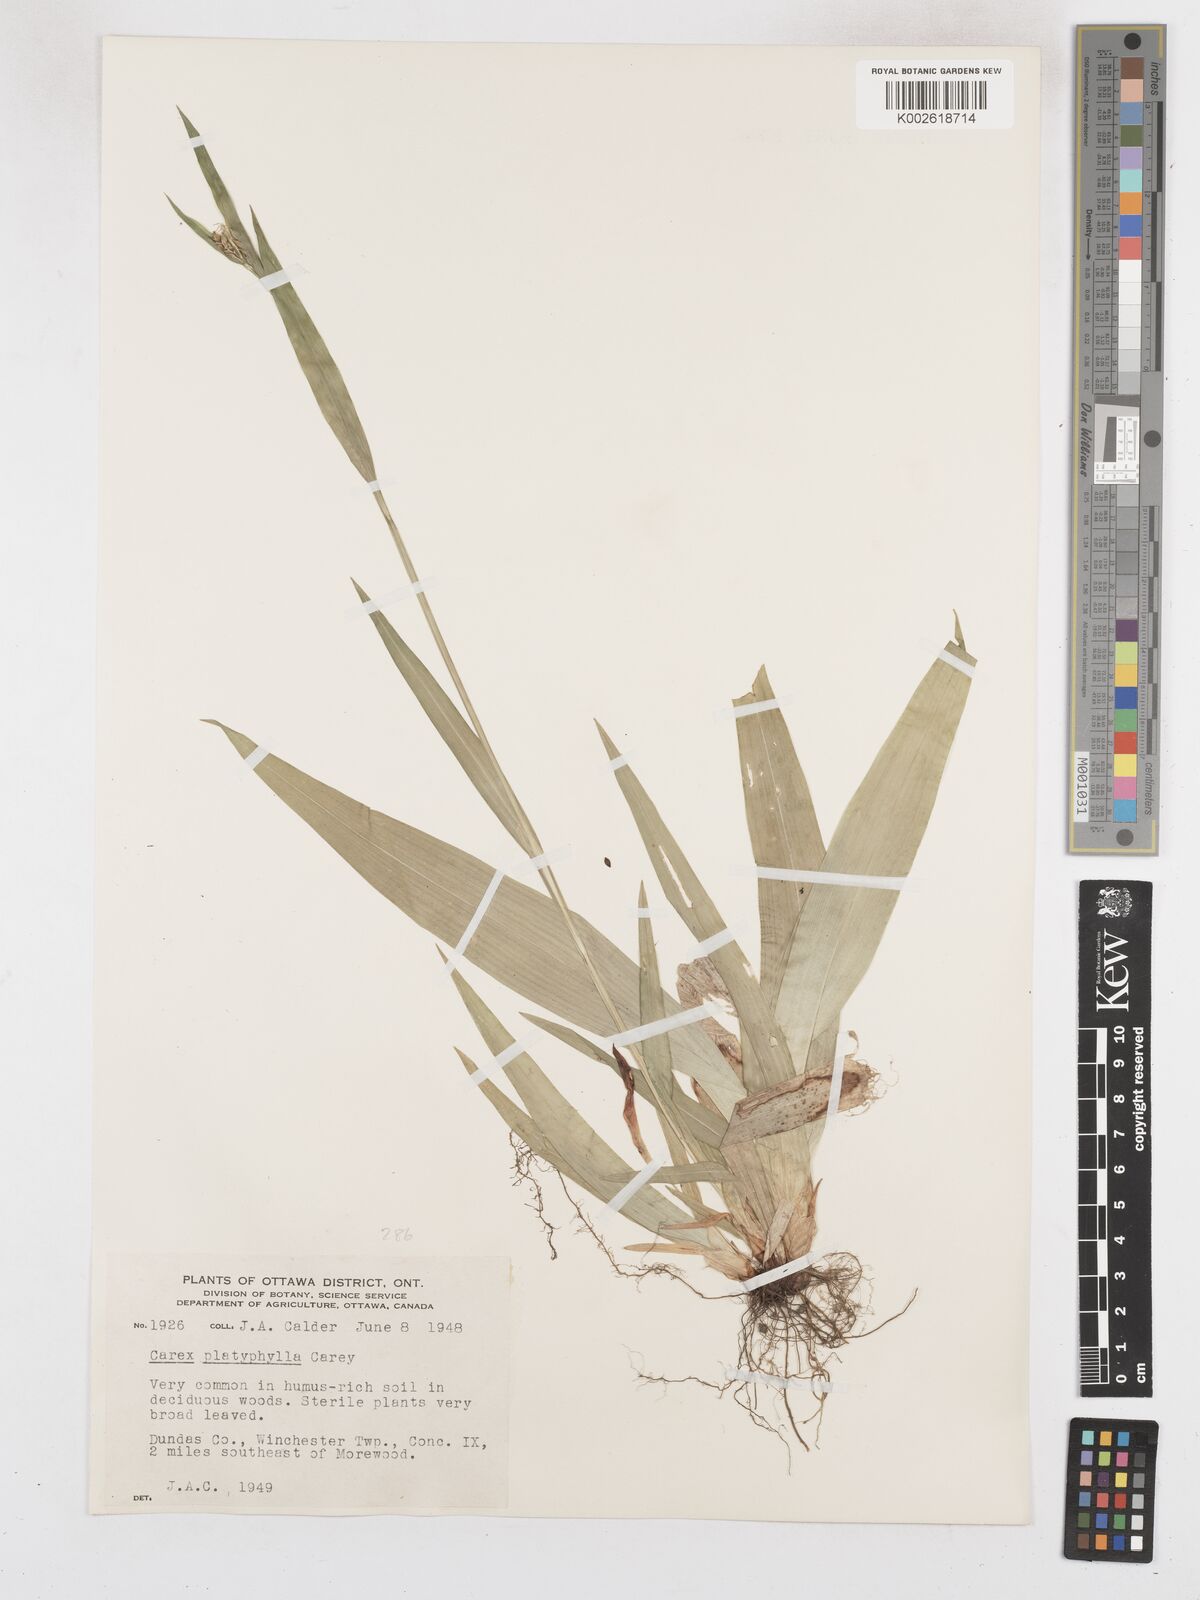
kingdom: Plantae
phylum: Tracheophyta
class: Liliopsida
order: Poales
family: Cyperaceae
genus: Carex
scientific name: Carex platyphylla
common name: Broad-leaved sedge
